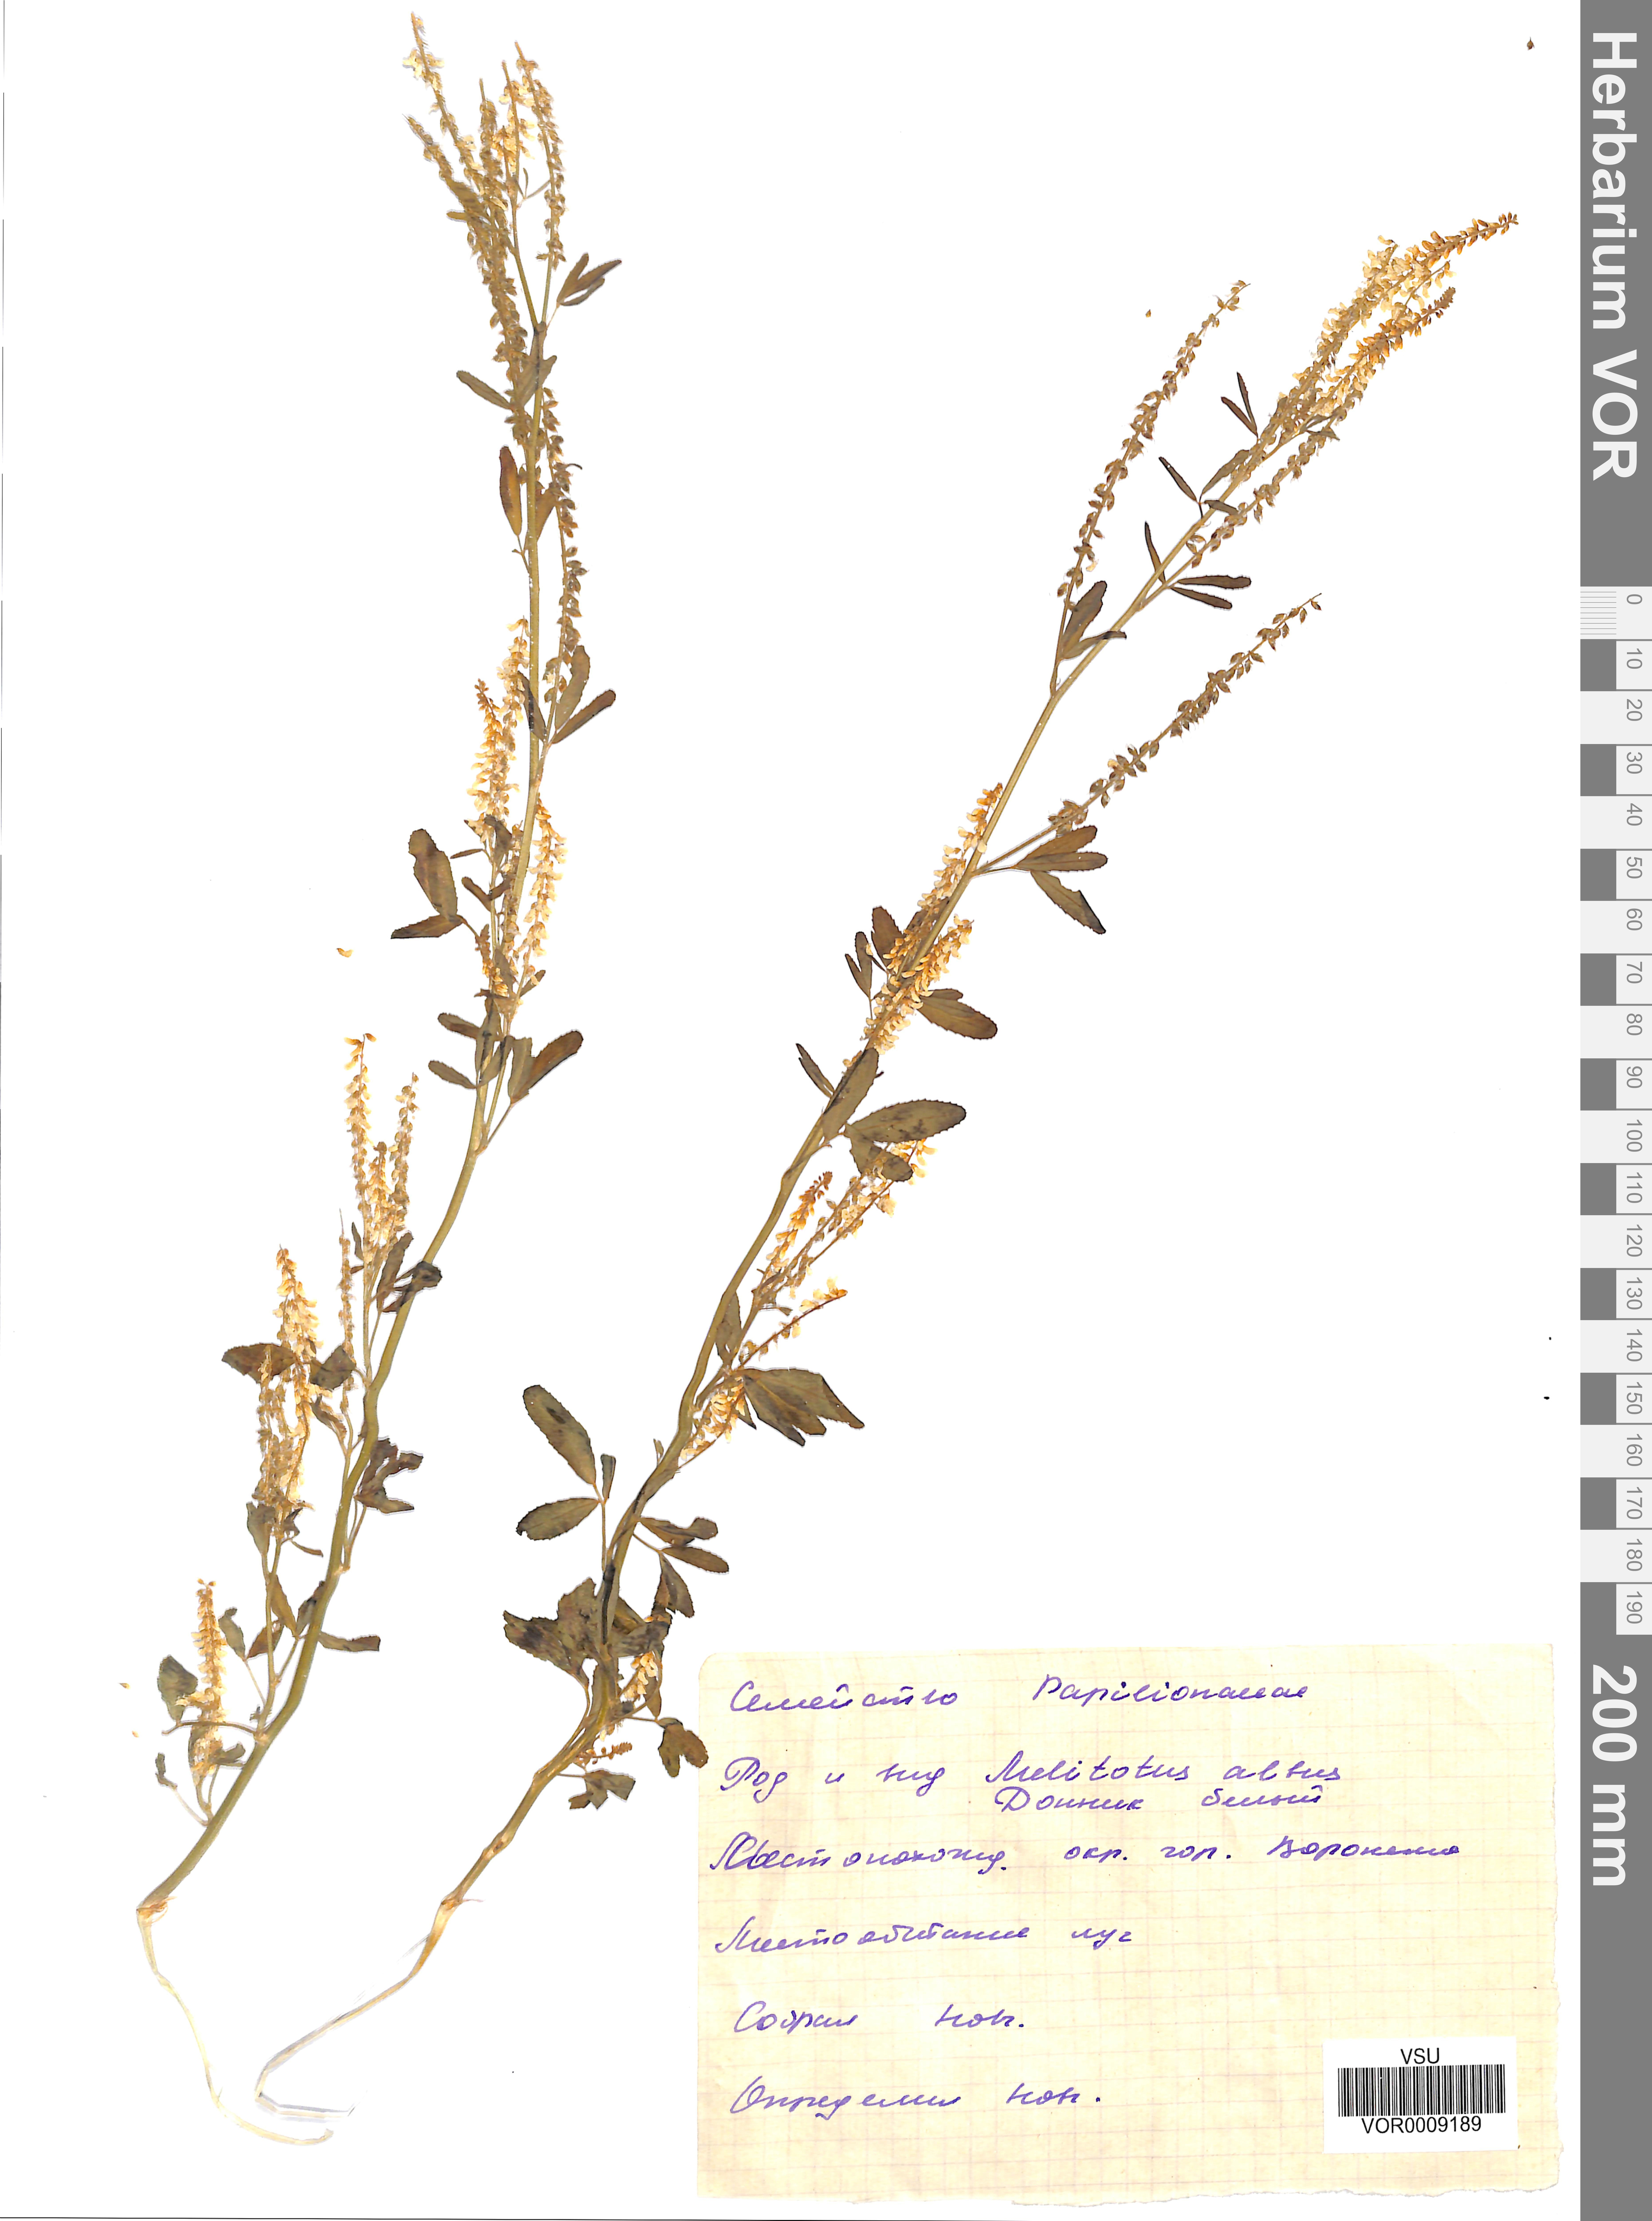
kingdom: Plantae
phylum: Tracheophyta
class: Magnoliopsida
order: Fabales
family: Fabaceae
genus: Melilotus
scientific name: Melilotus albus
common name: White melilot
